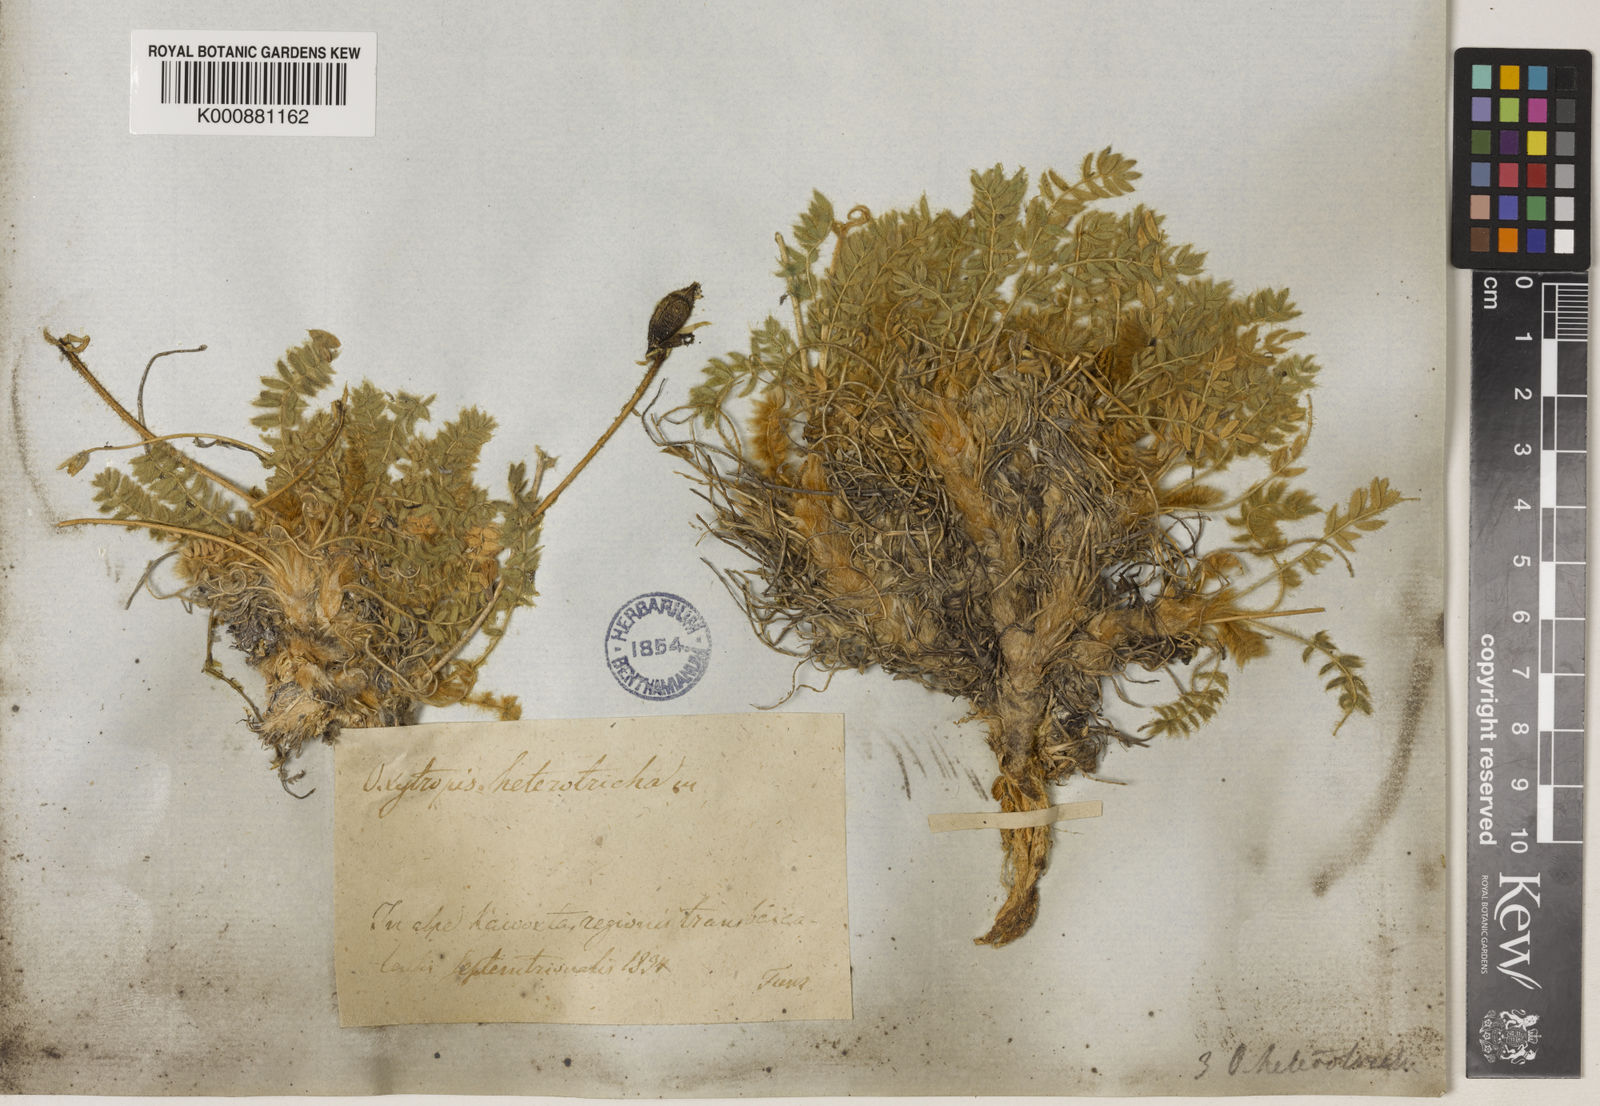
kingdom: Plantae
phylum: Tracheophyta
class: Magnoliopsida
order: Fabales
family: Fabaceae
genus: Oxytropis
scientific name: Oxytropis heterotricha
